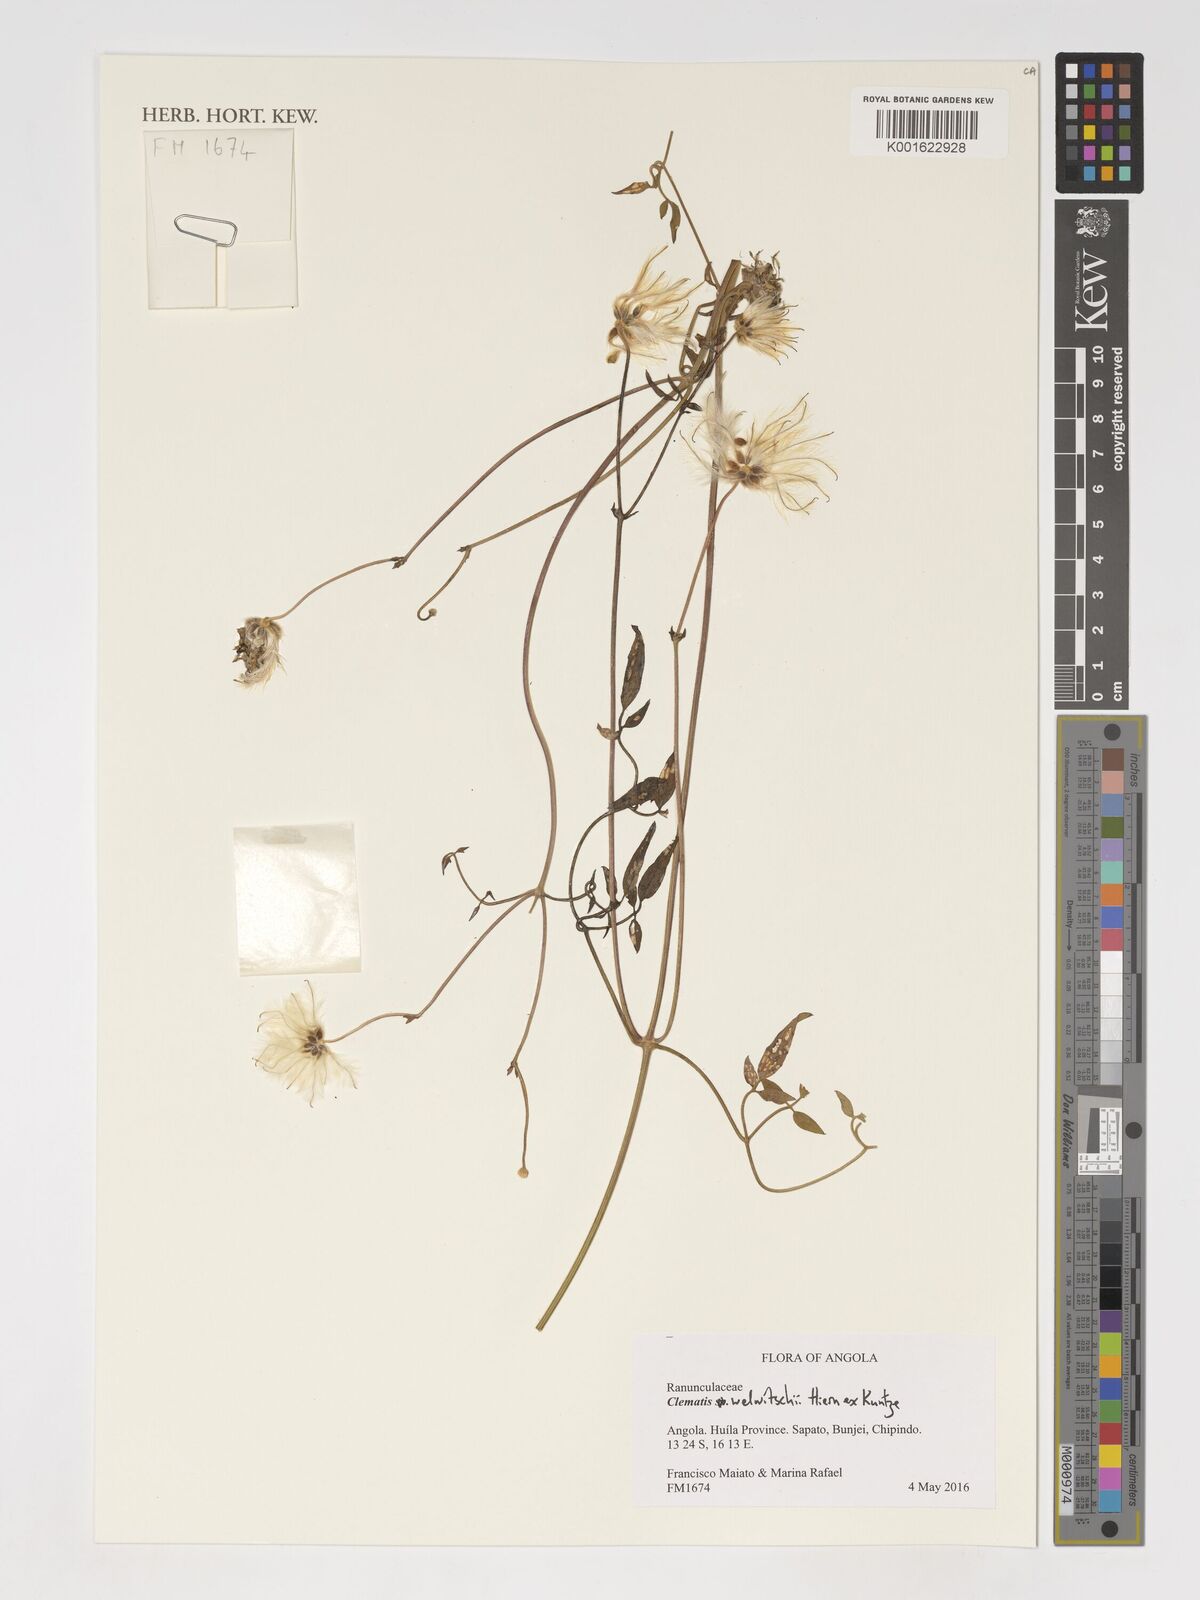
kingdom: Plantae
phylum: Tracheophyta
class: Magnoliopsida
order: Ranunculales
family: Ranunculaceae
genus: Clematis
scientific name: Clematis welwitschii
